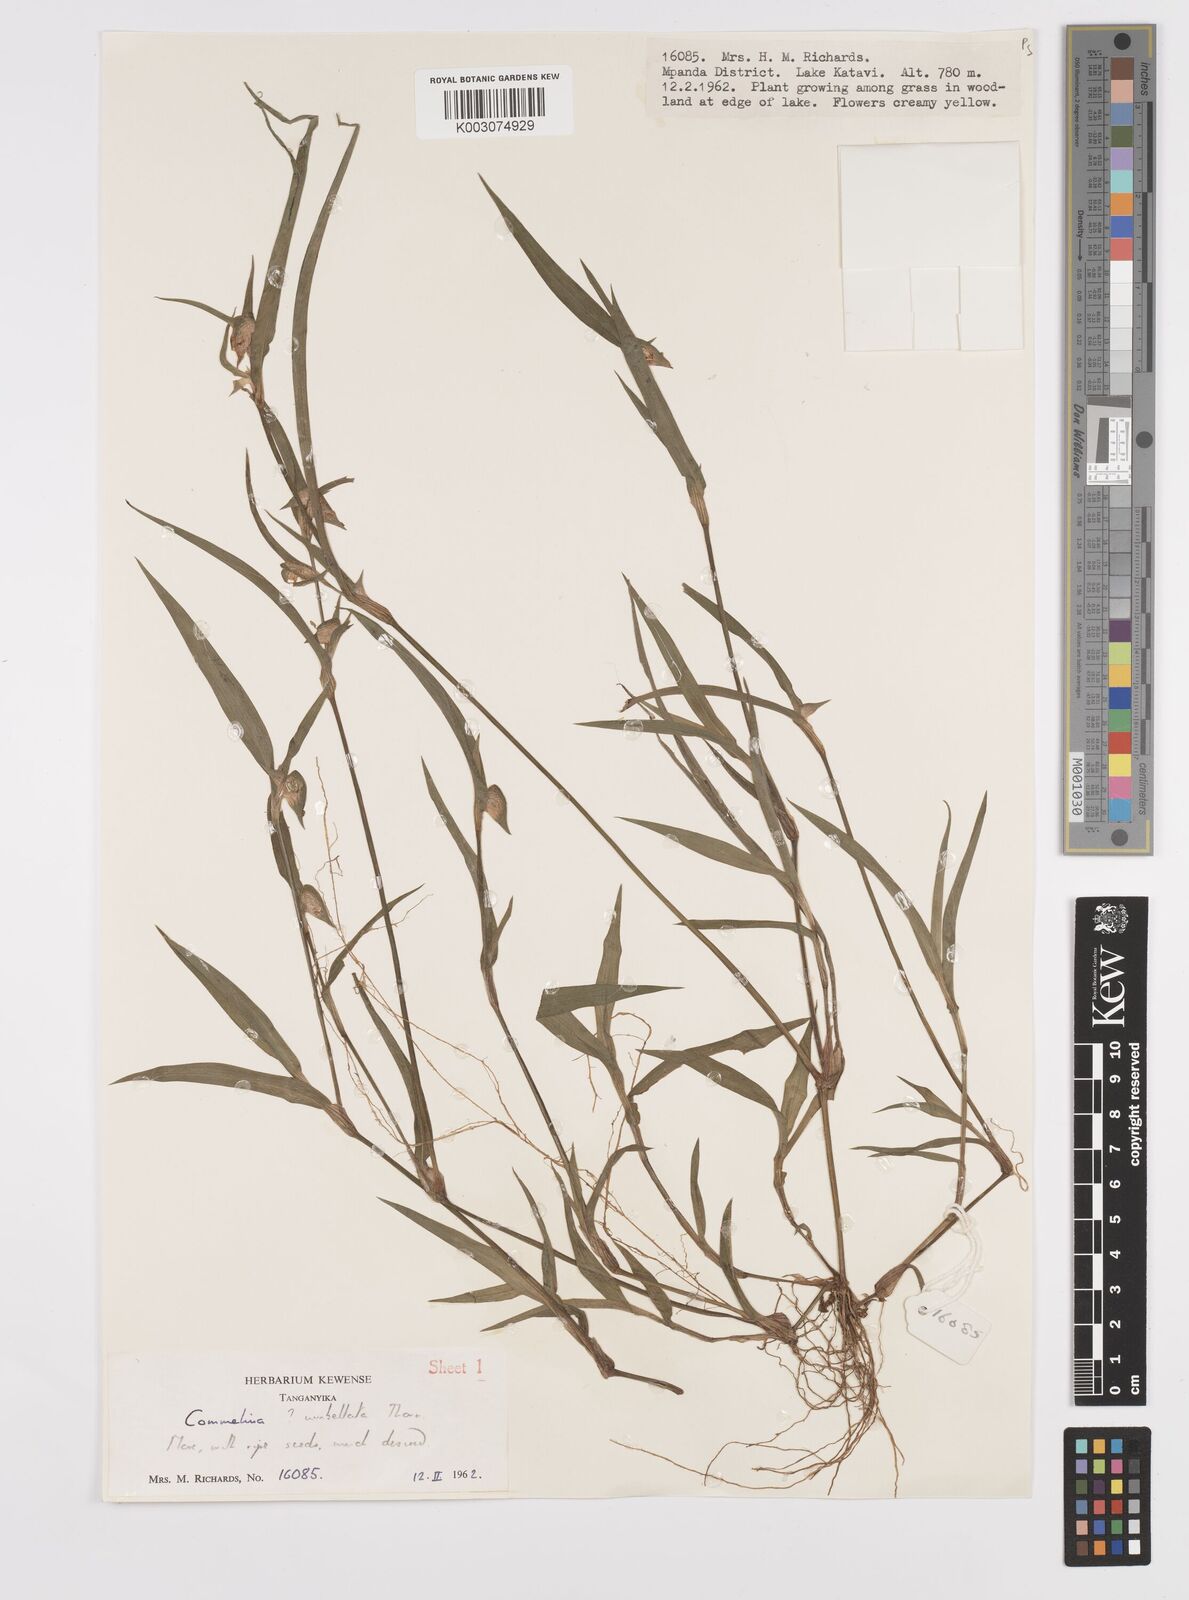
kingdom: Plantae
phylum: Tracheophyta
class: Liliopsida
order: Commelinales
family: Commelinaceae
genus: Commelina
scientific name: Commelina nigritana
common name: African dayflower
